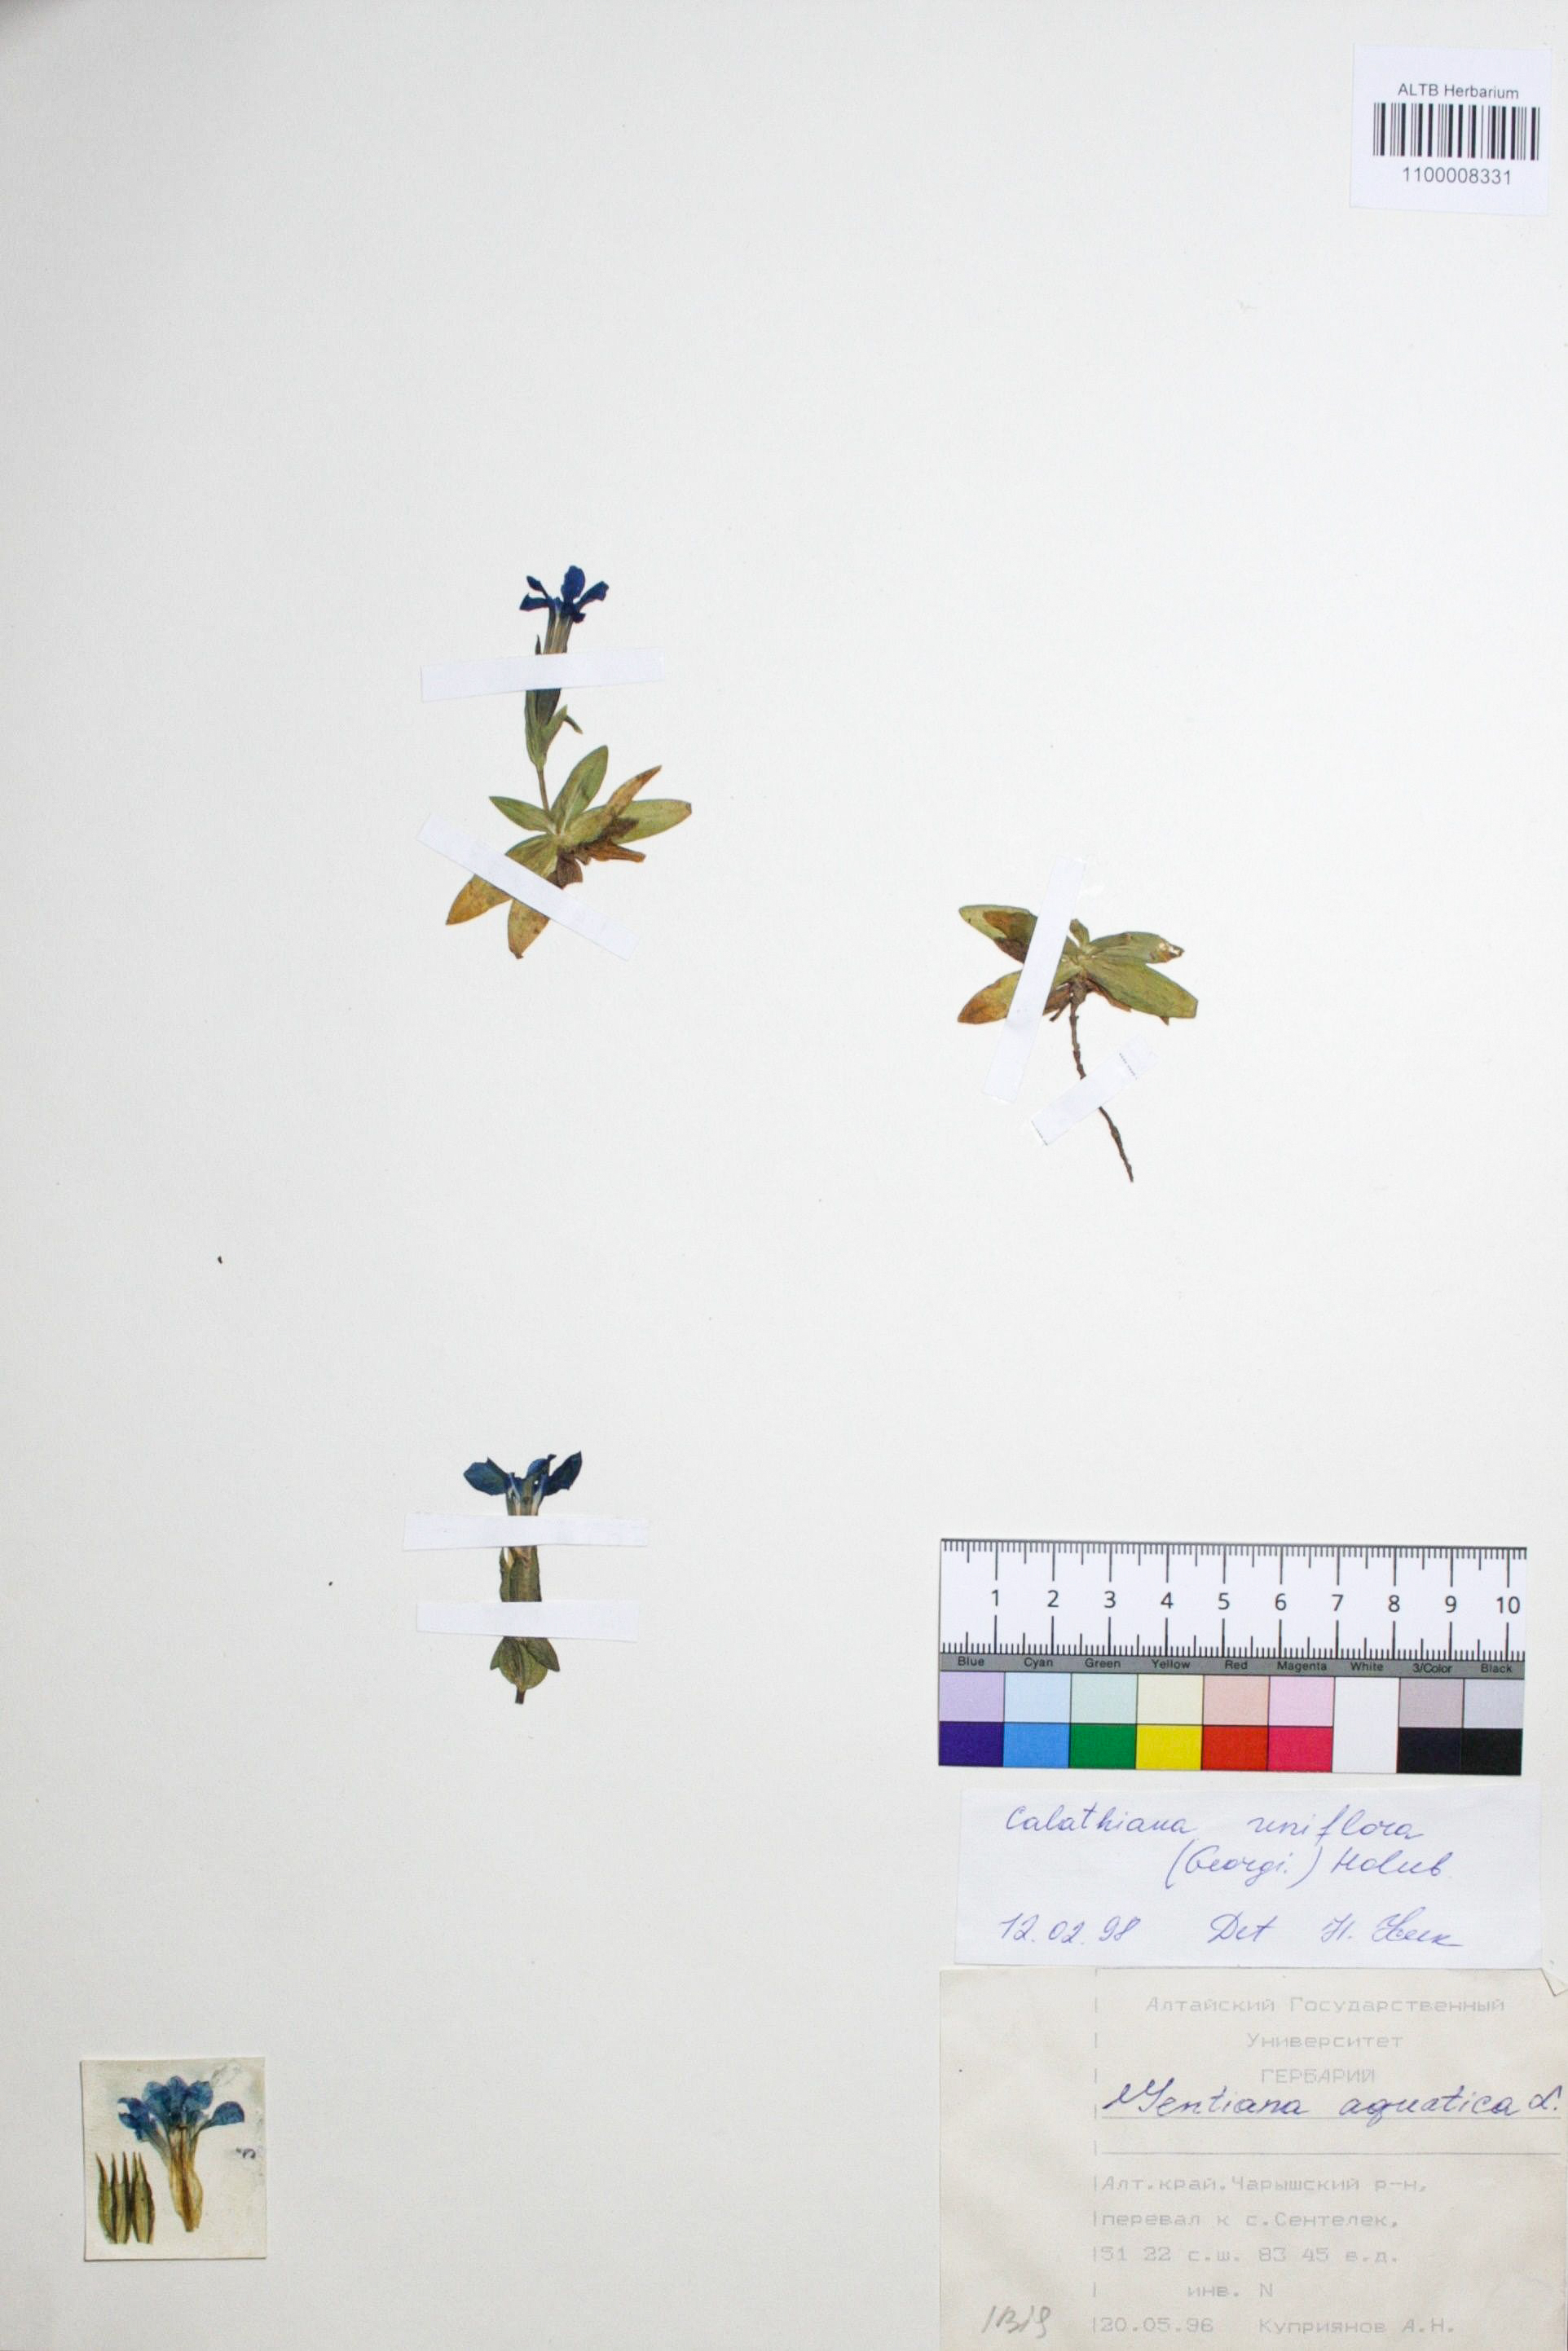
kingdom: Plantae
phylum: Tracheophyta
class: Magnoliopsida
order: Gentianales
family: Gentianaceae
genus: Gentiana
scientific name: Gentiana uniflora
